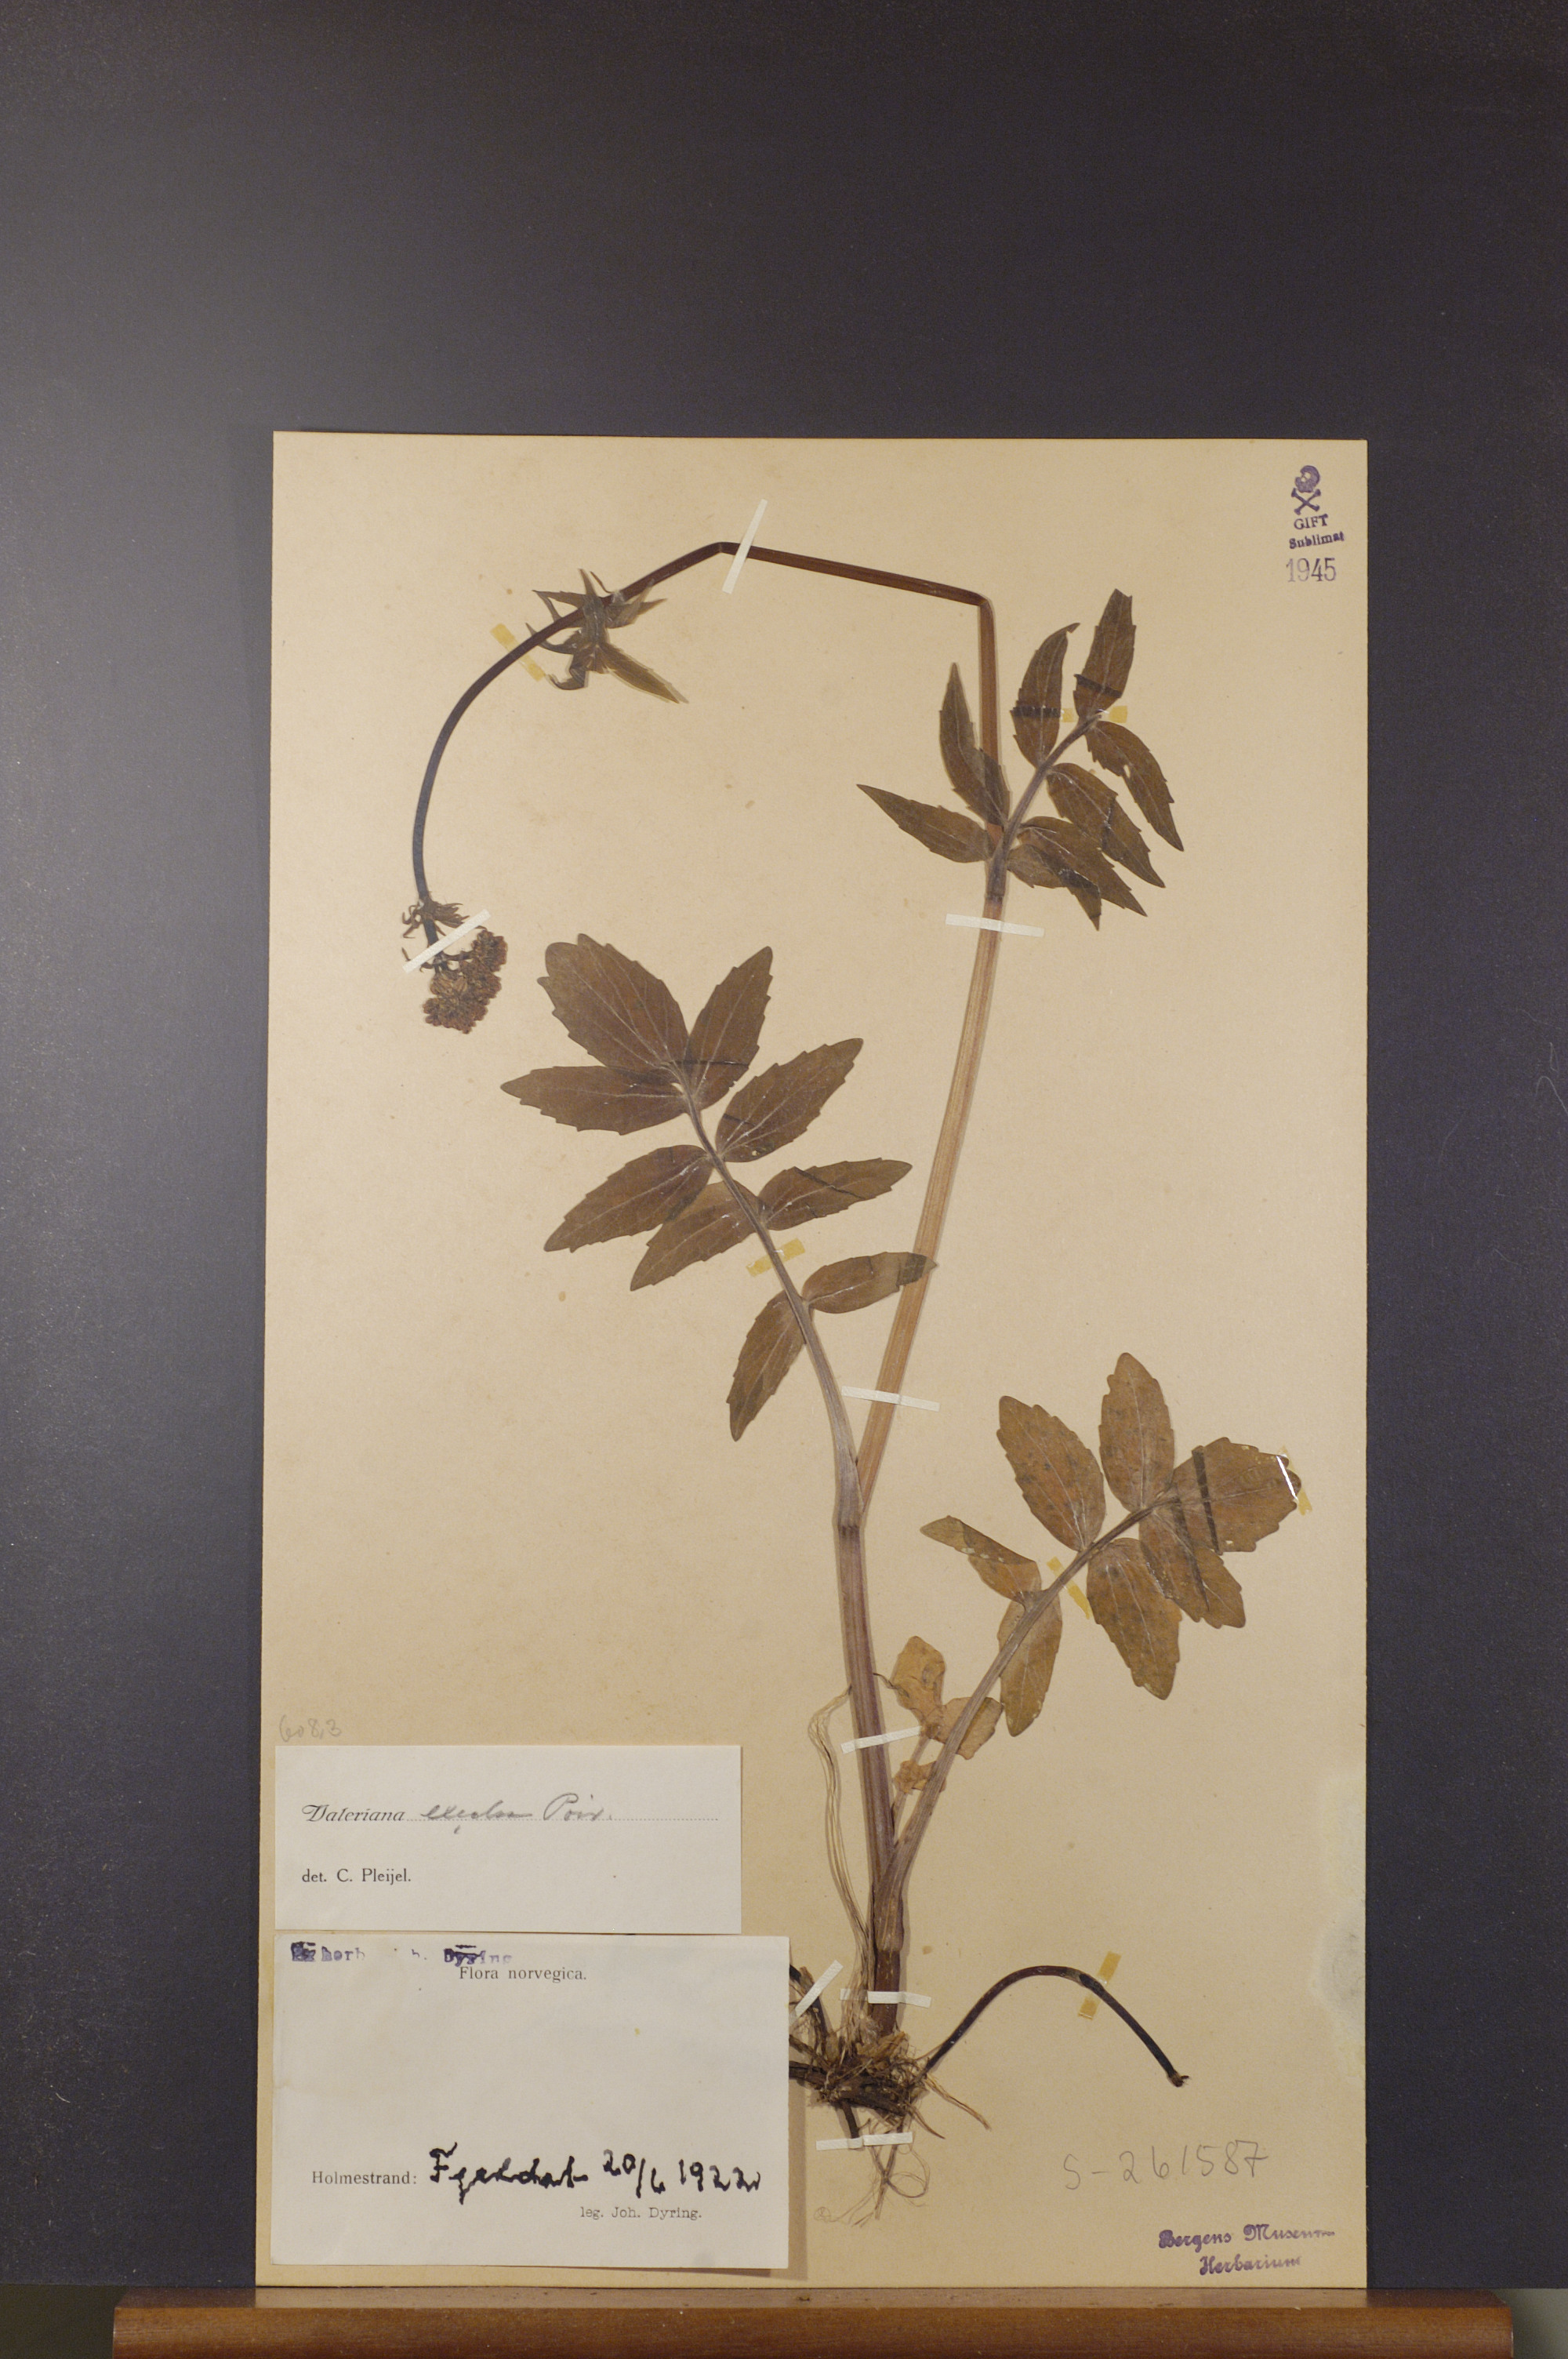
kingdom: Plantae
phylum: Tracheophyta
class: Magnoliopsida
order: Dipsacales
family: Caprifoliaceae
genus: Valeriana
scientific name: Valeriana sambucifolia
